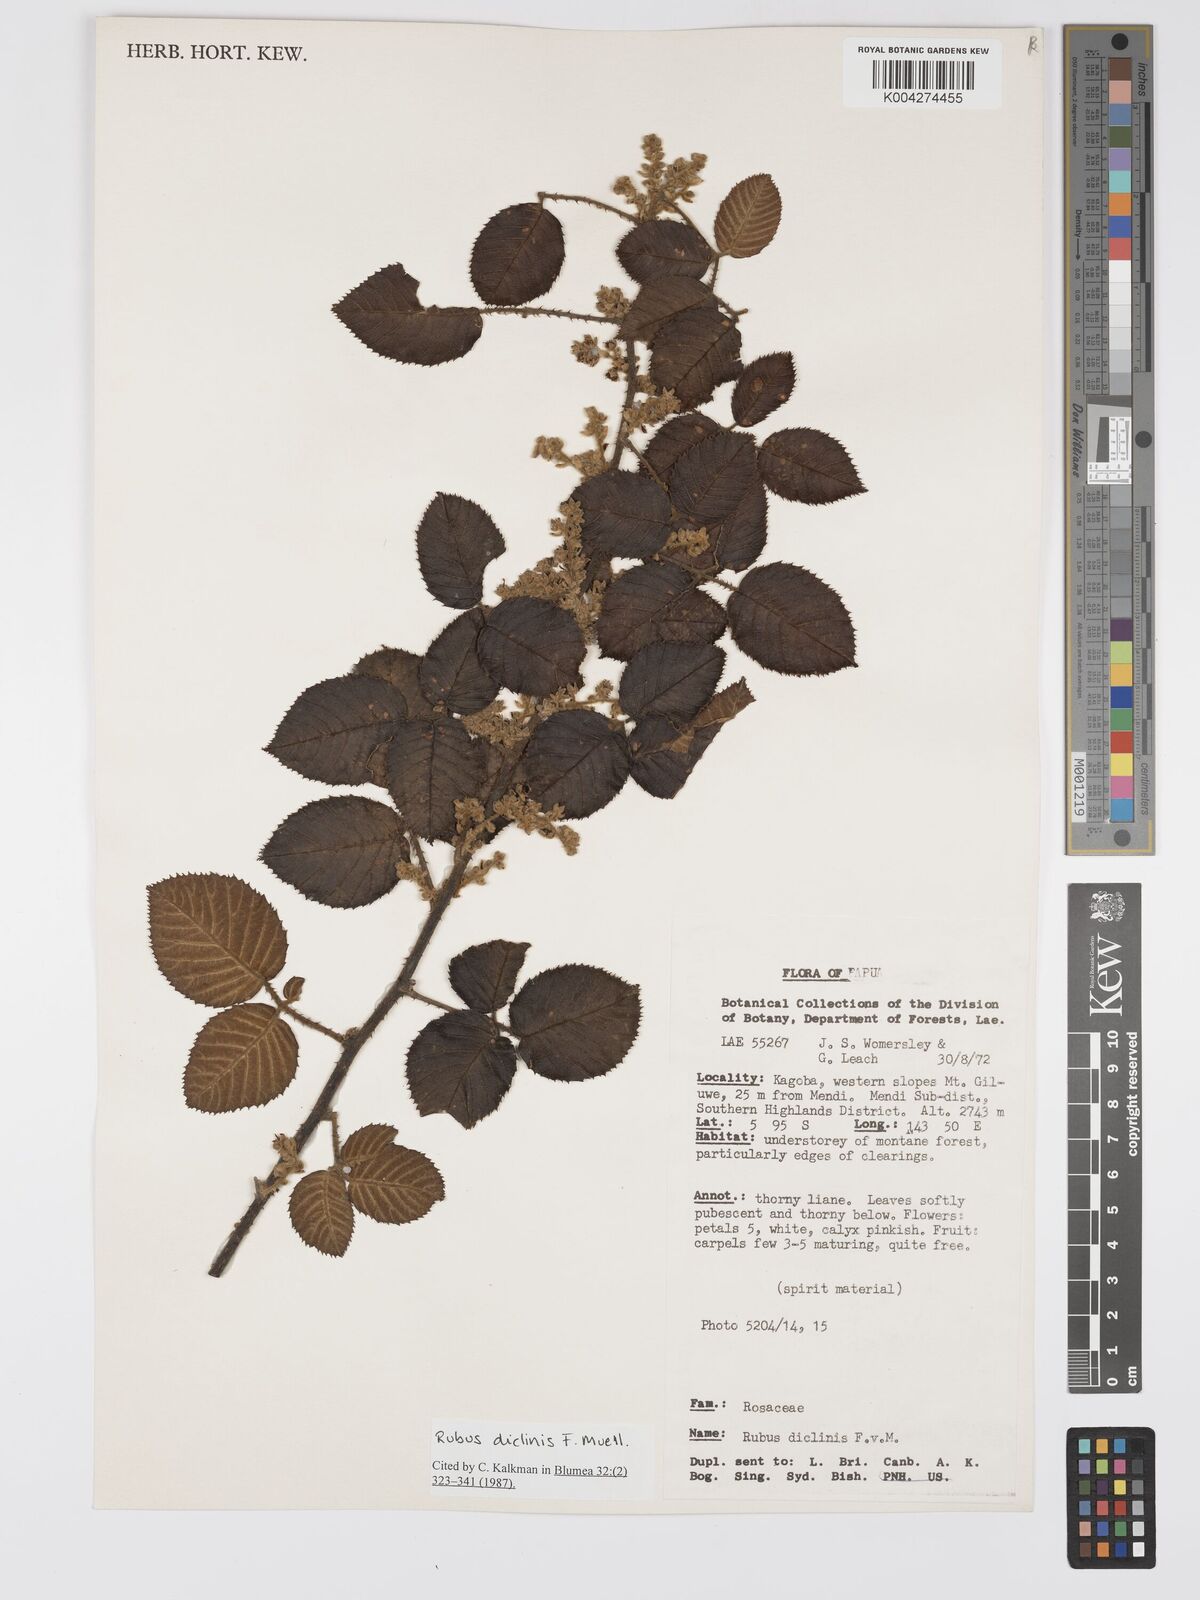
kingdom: Plantae
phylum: Tracheophyta
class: Magnoliopsida
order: Rosales
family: Rosaceae
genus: Rubus
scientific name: Rubus diclinis
